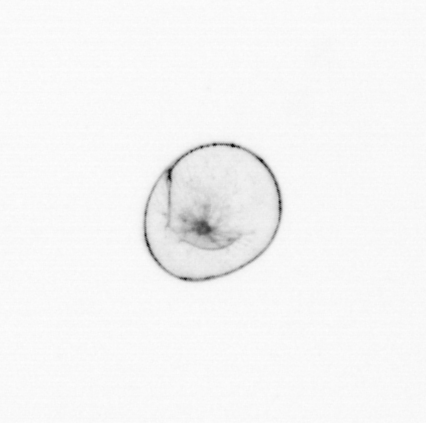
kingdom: Chromista
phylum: Myzozoa
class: Dinophyceae
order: Noctilucales
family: Noctilucaceae
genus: Noctiluca
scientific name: Noctiluca scintillans
